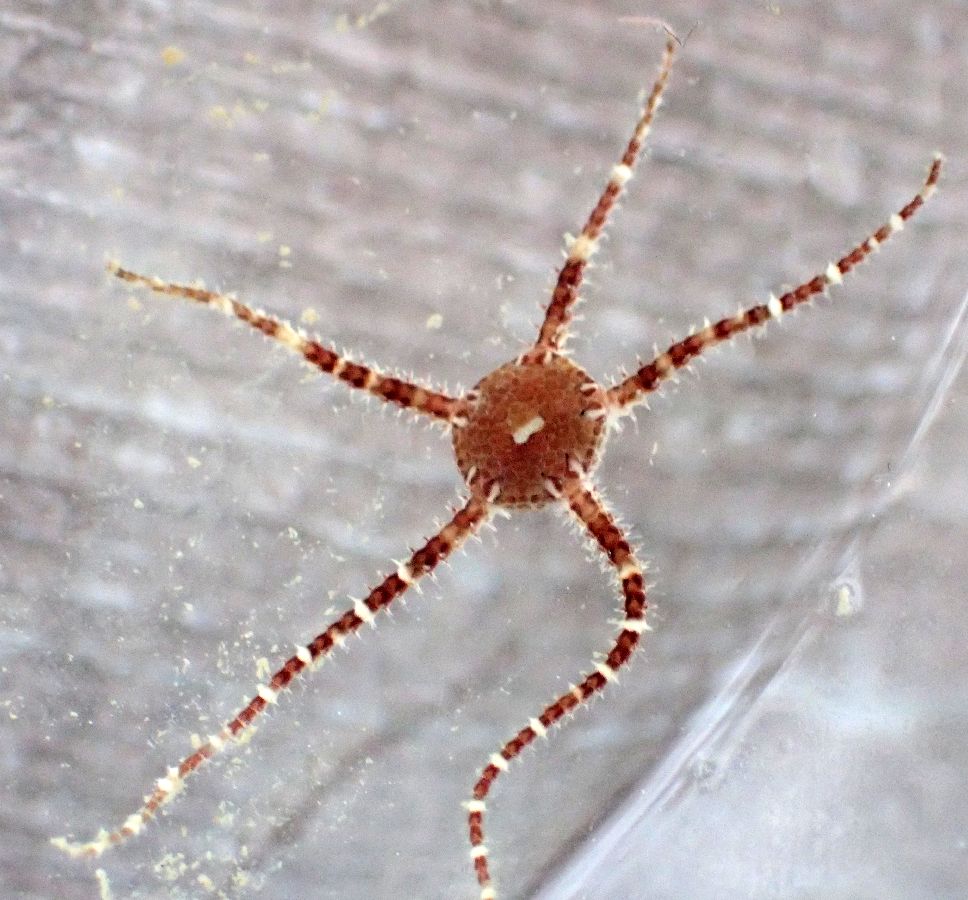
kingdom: Animalia
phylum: Echinodermata
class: Ophiuroidea
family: Ophiuridae
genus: Ophiura
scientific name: Ophiura robusta
